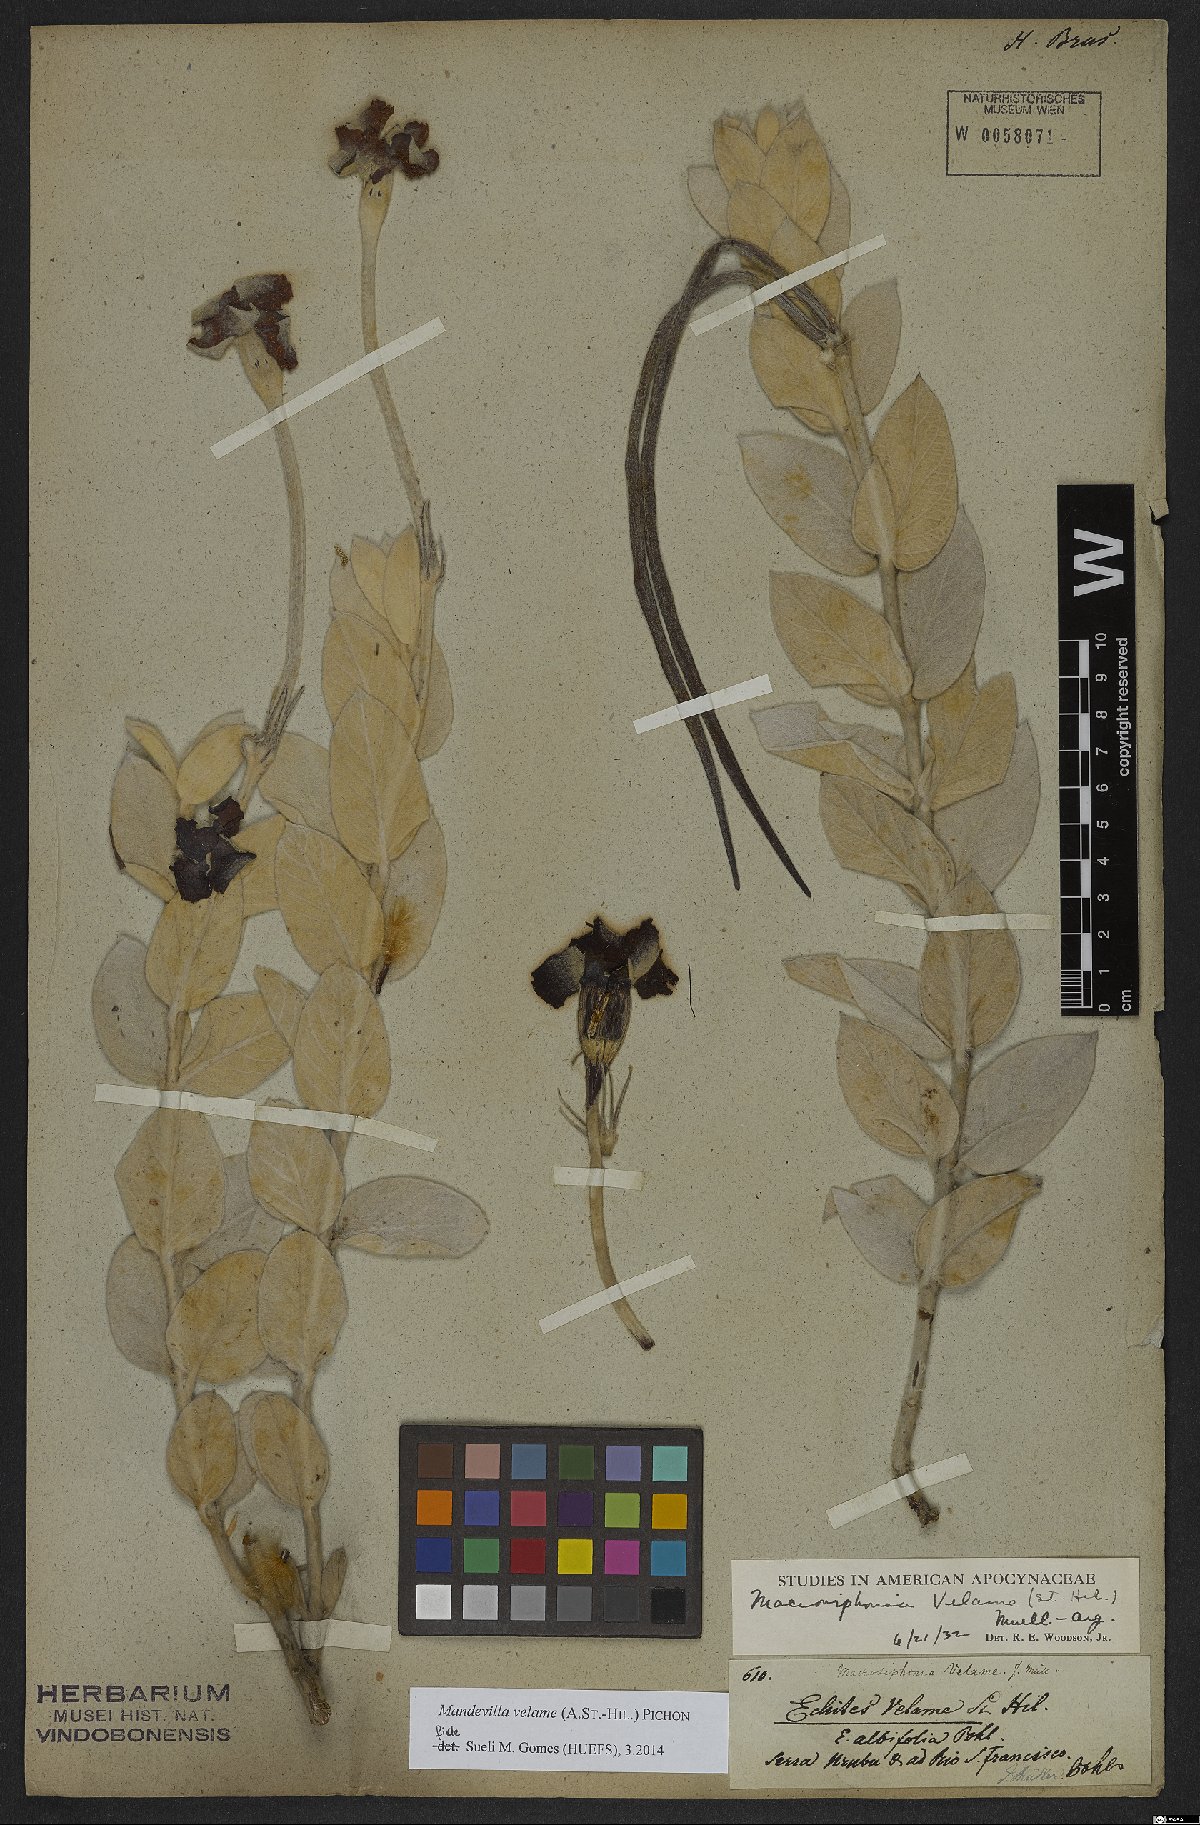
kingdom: Plantae
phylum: Tracheophyta
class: Magnoliopsida
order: Gentianales
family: Apocynaceae
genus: Mandevilla
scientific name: Mandevilla velame
